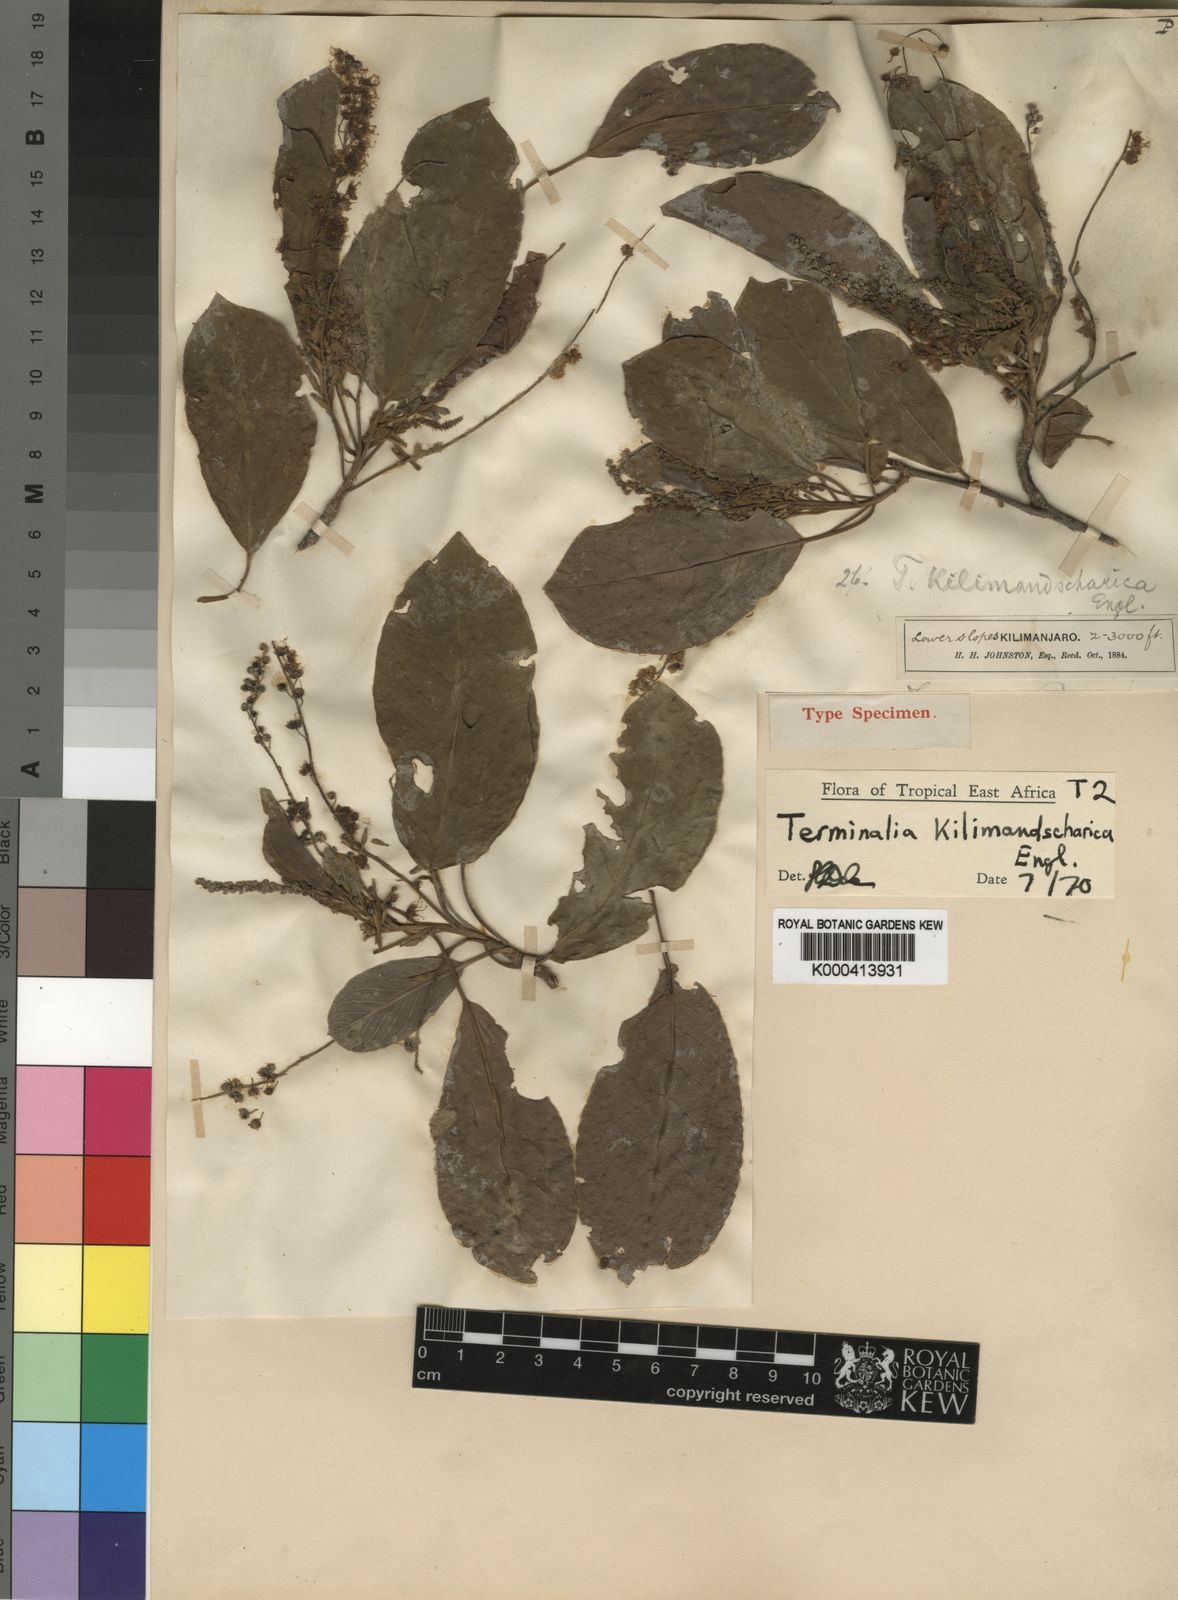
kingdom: Plantae
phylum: Tracheophyta
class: Magnoliopsida
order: Myrtales
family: Combretaceae
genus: Terminalia
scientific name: Terminalia kilimandscharica
